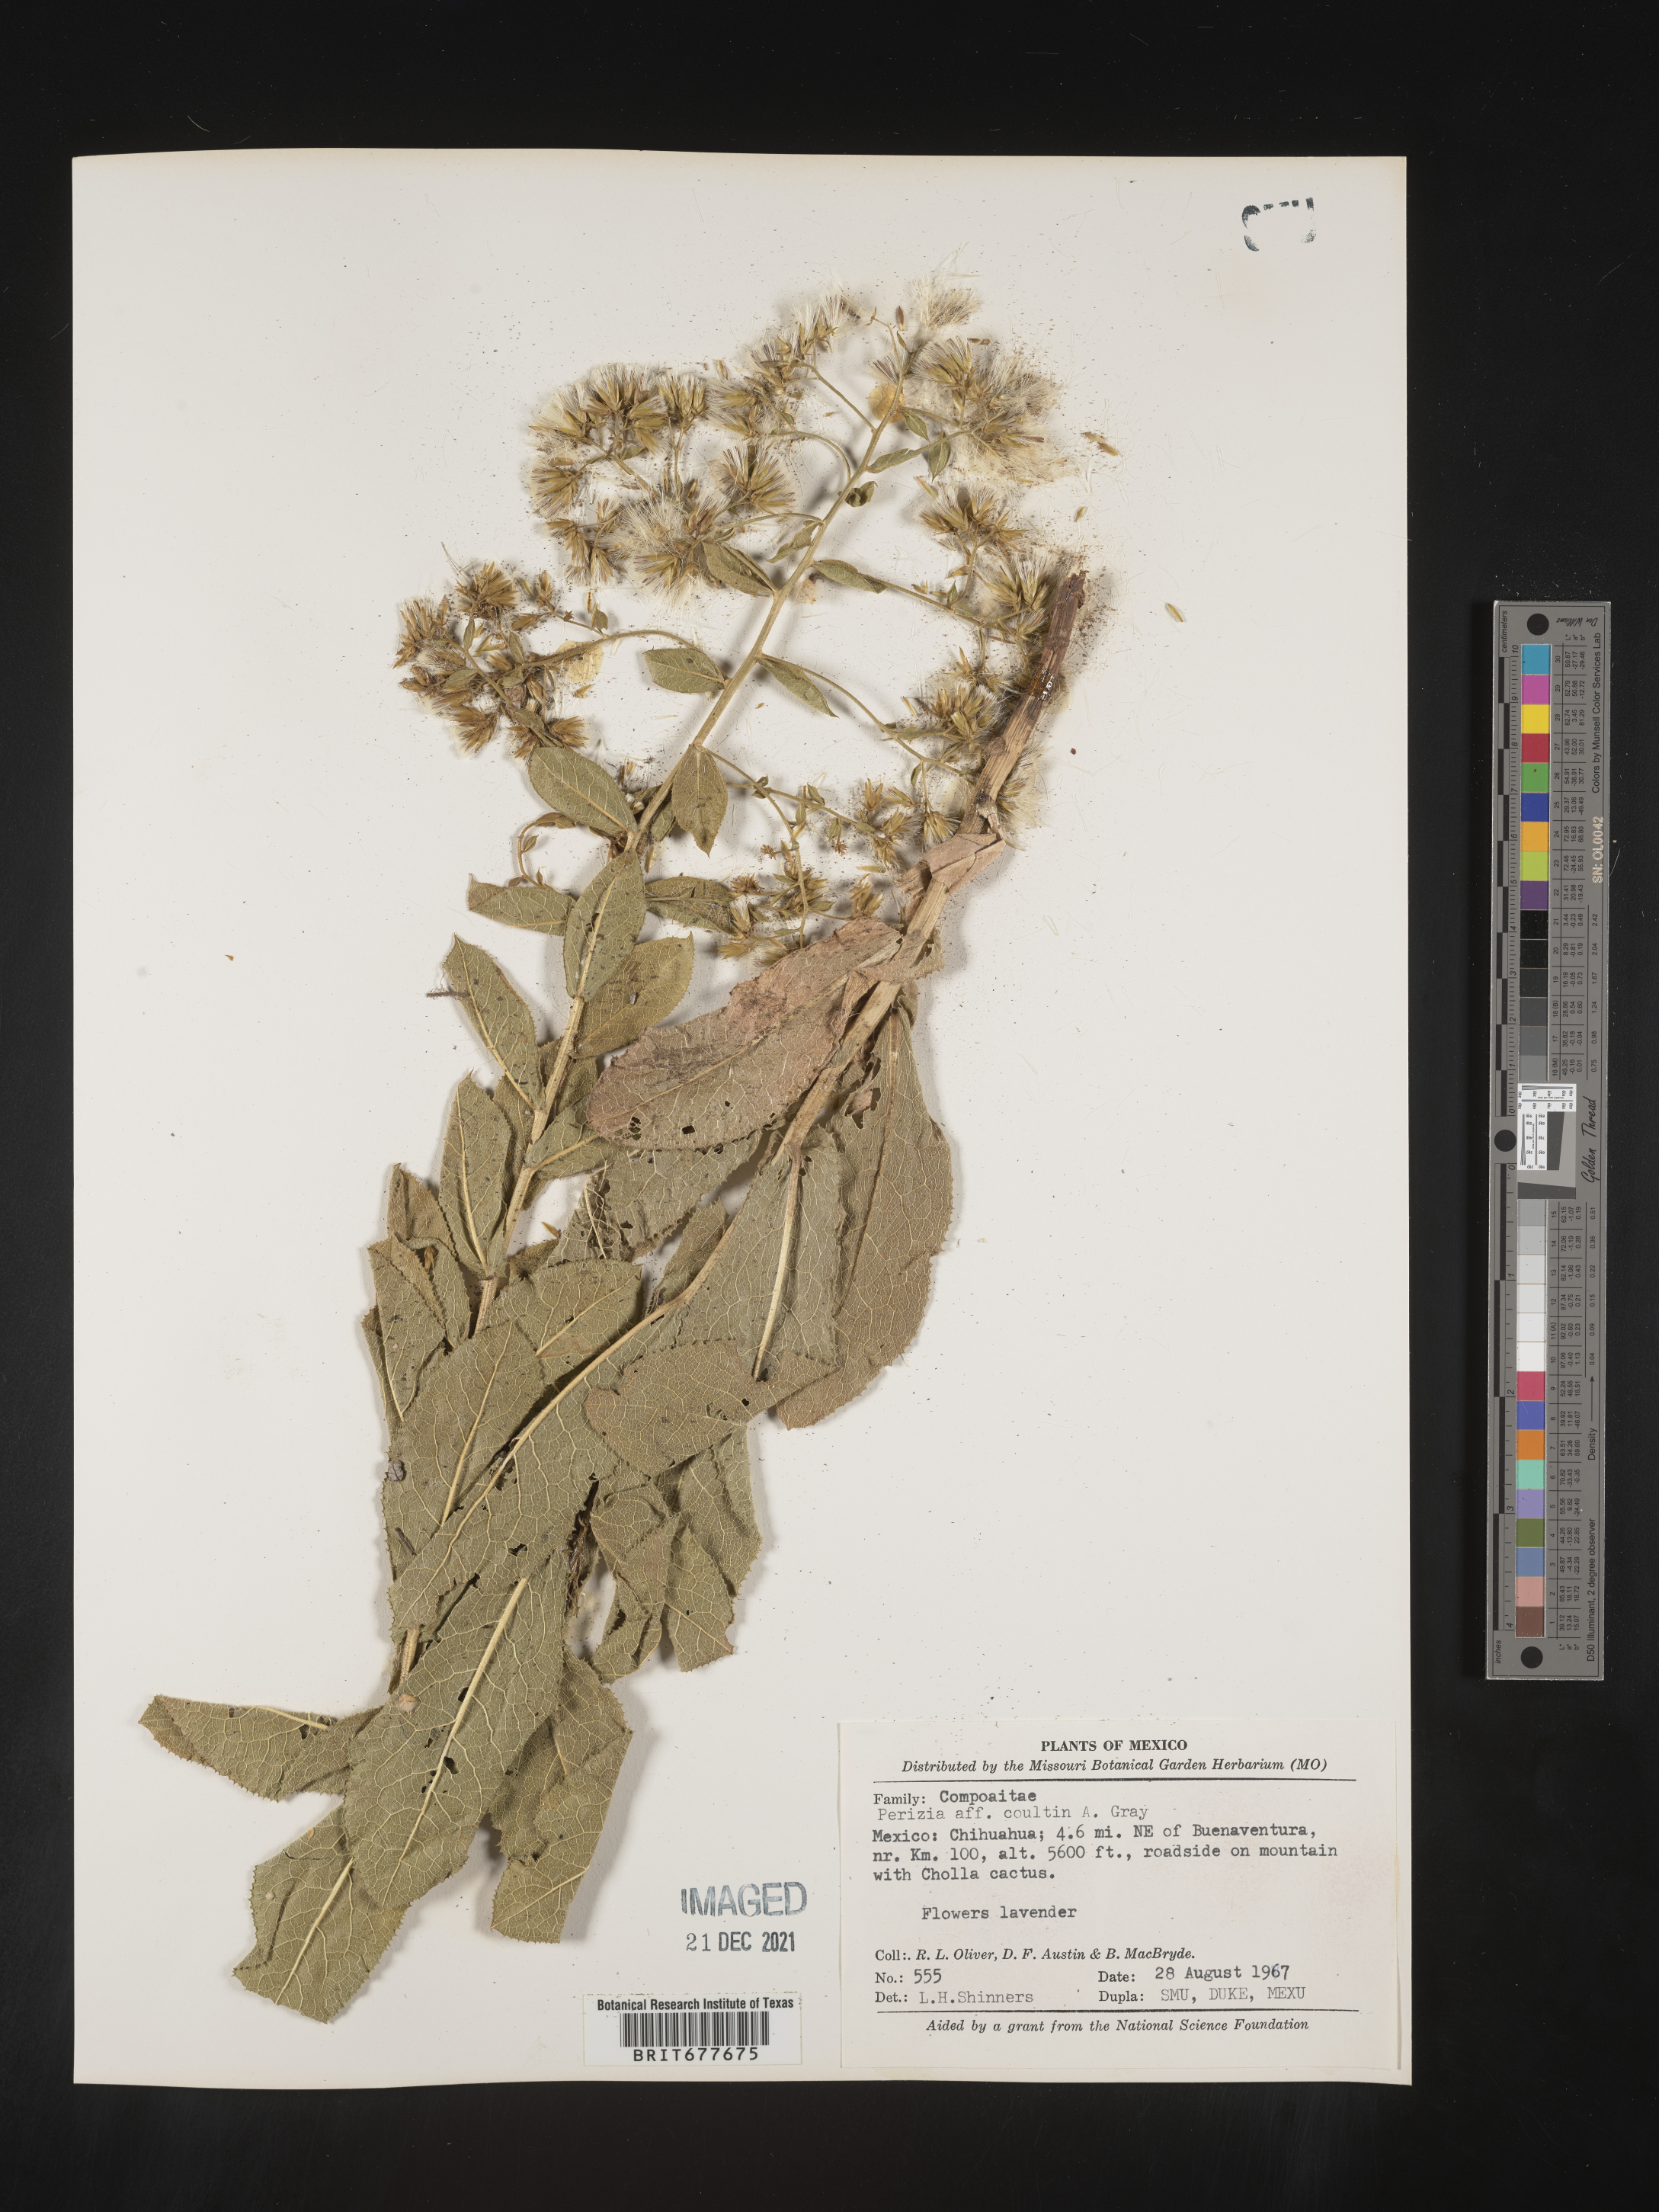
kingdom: Plantae
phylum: Tracheophyta
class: Magnoliopsida
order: Asterales
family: Asteraceae
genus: Perezia
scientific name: Perezia
